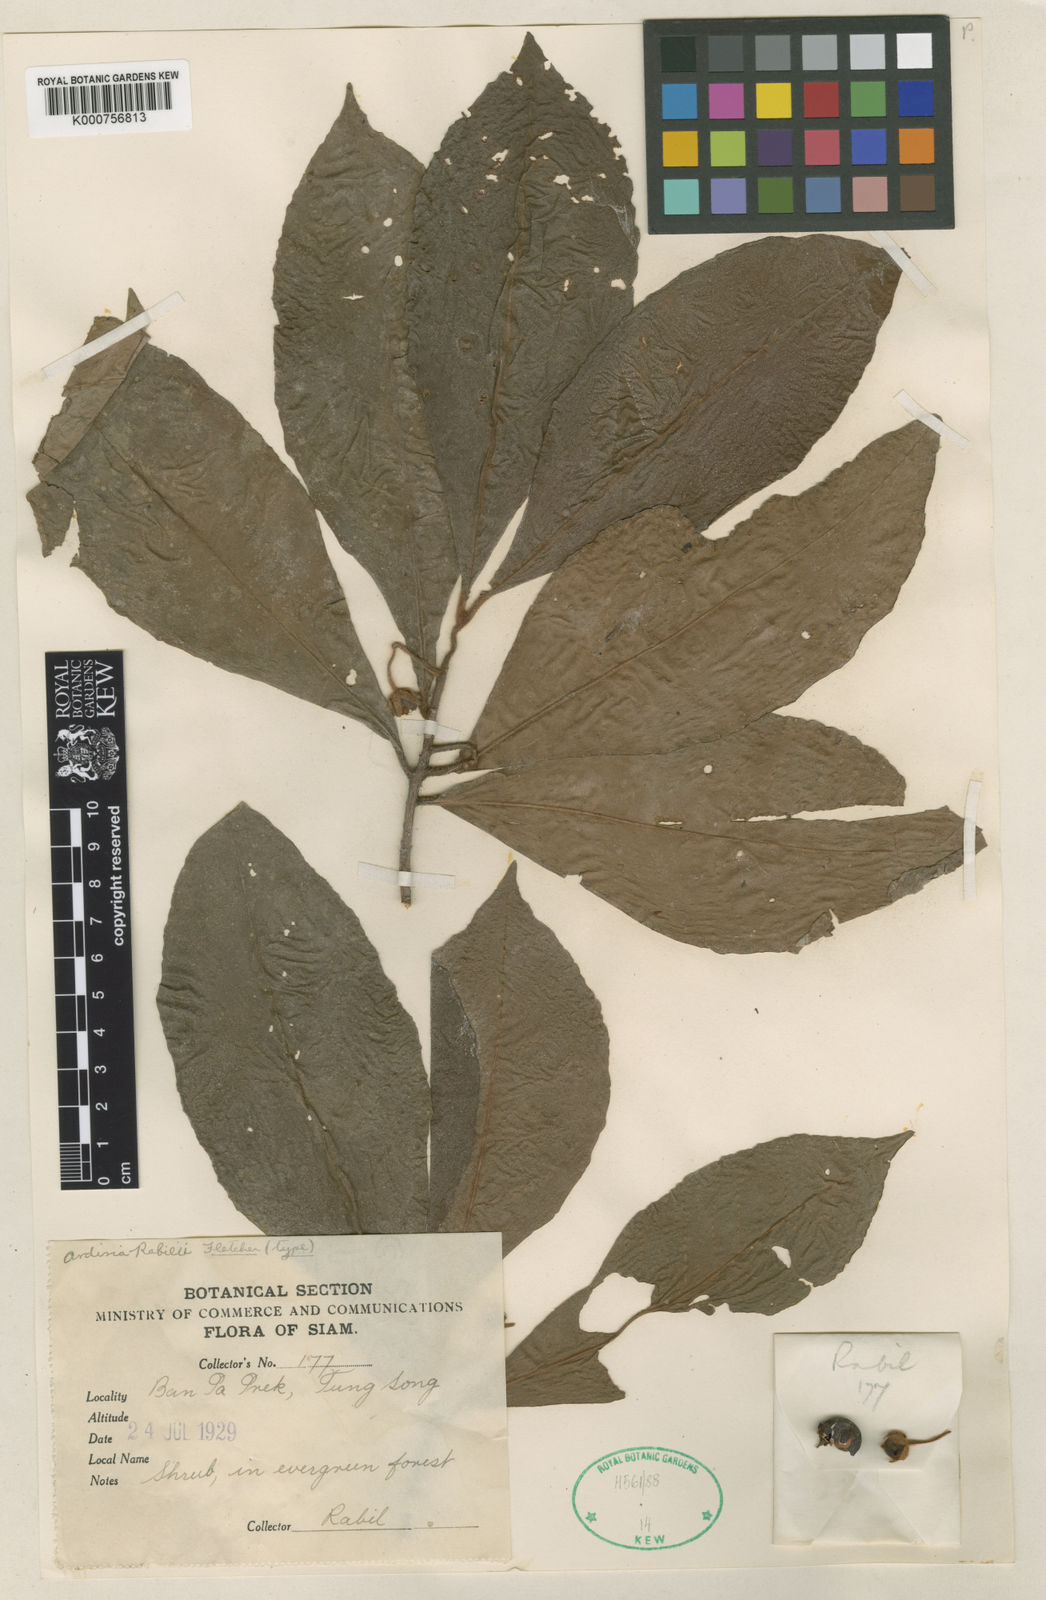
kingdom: Plantae
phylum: Tracheophyta
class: Magnoliopsida
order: Ericales
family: Primulaceae
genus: Ardisia
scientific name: Ardisia villosa
